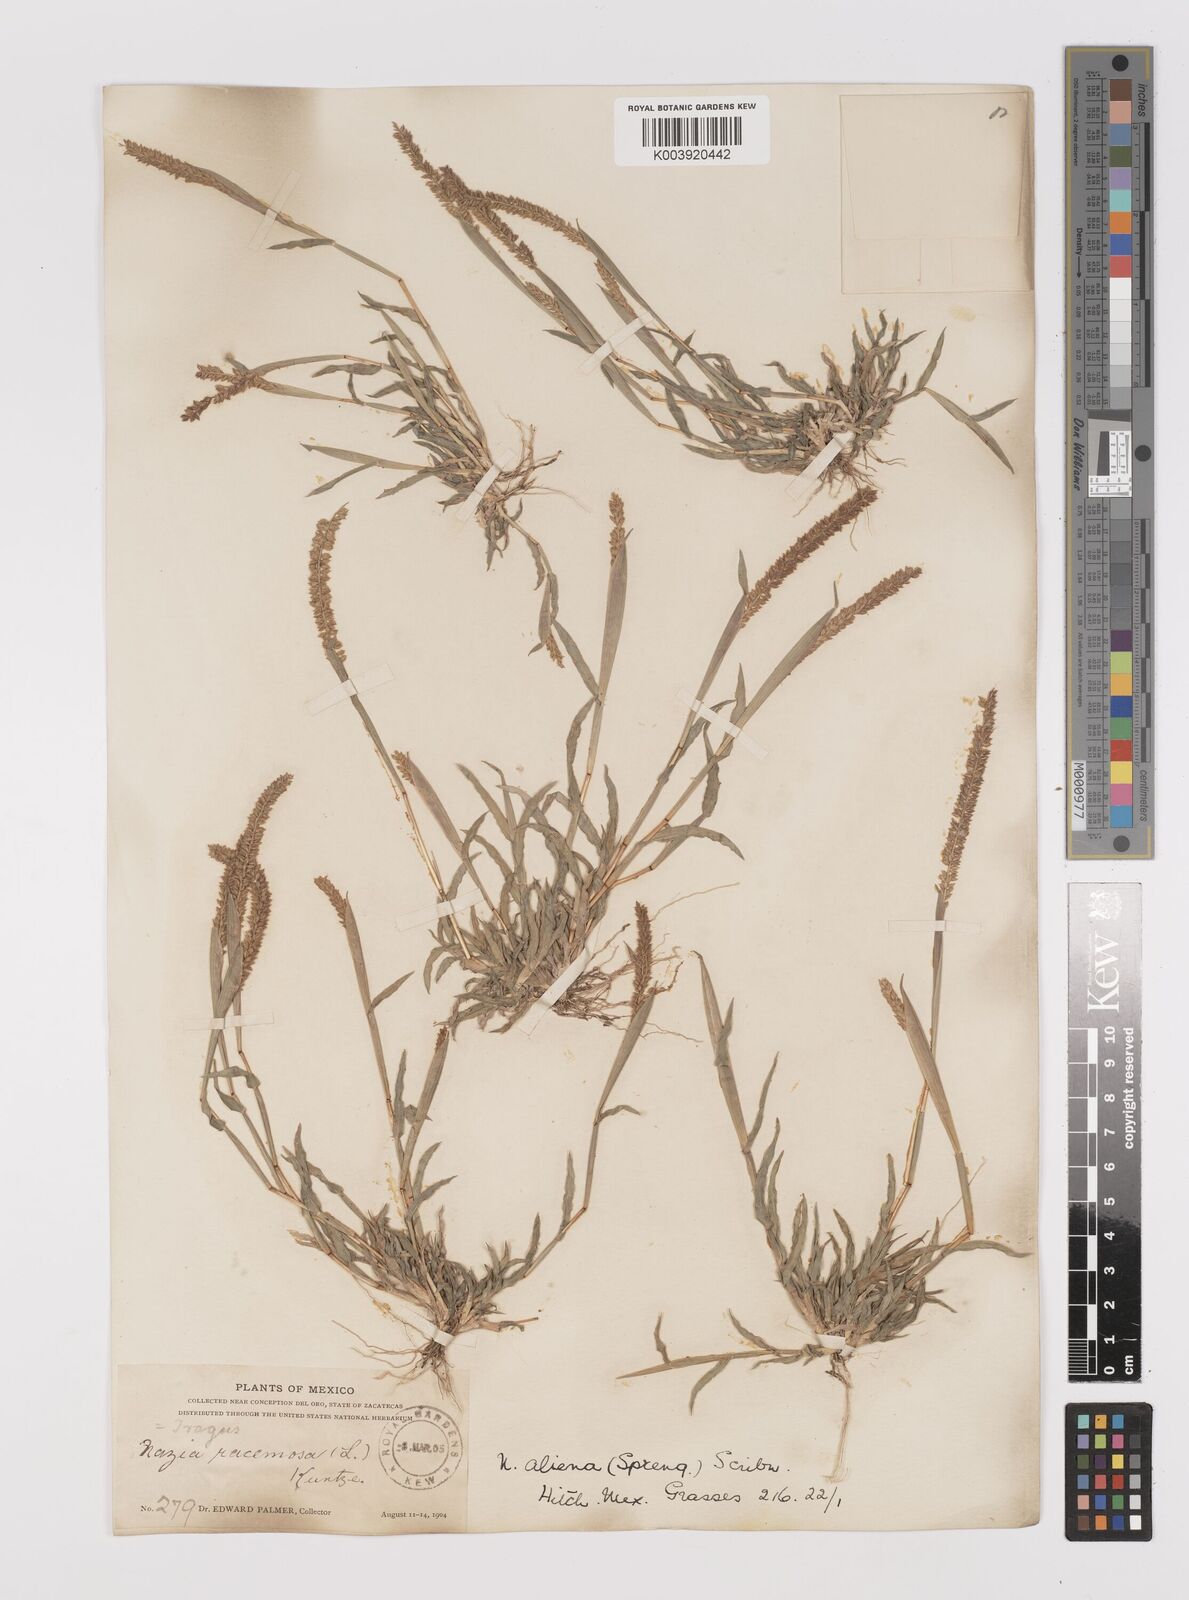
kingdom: Plantae
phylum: Tracheophyta
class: Liliopsida
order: Poales
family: Poaceae
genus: Tragus
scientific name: Tragus berteronianus
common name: African bur-grass
